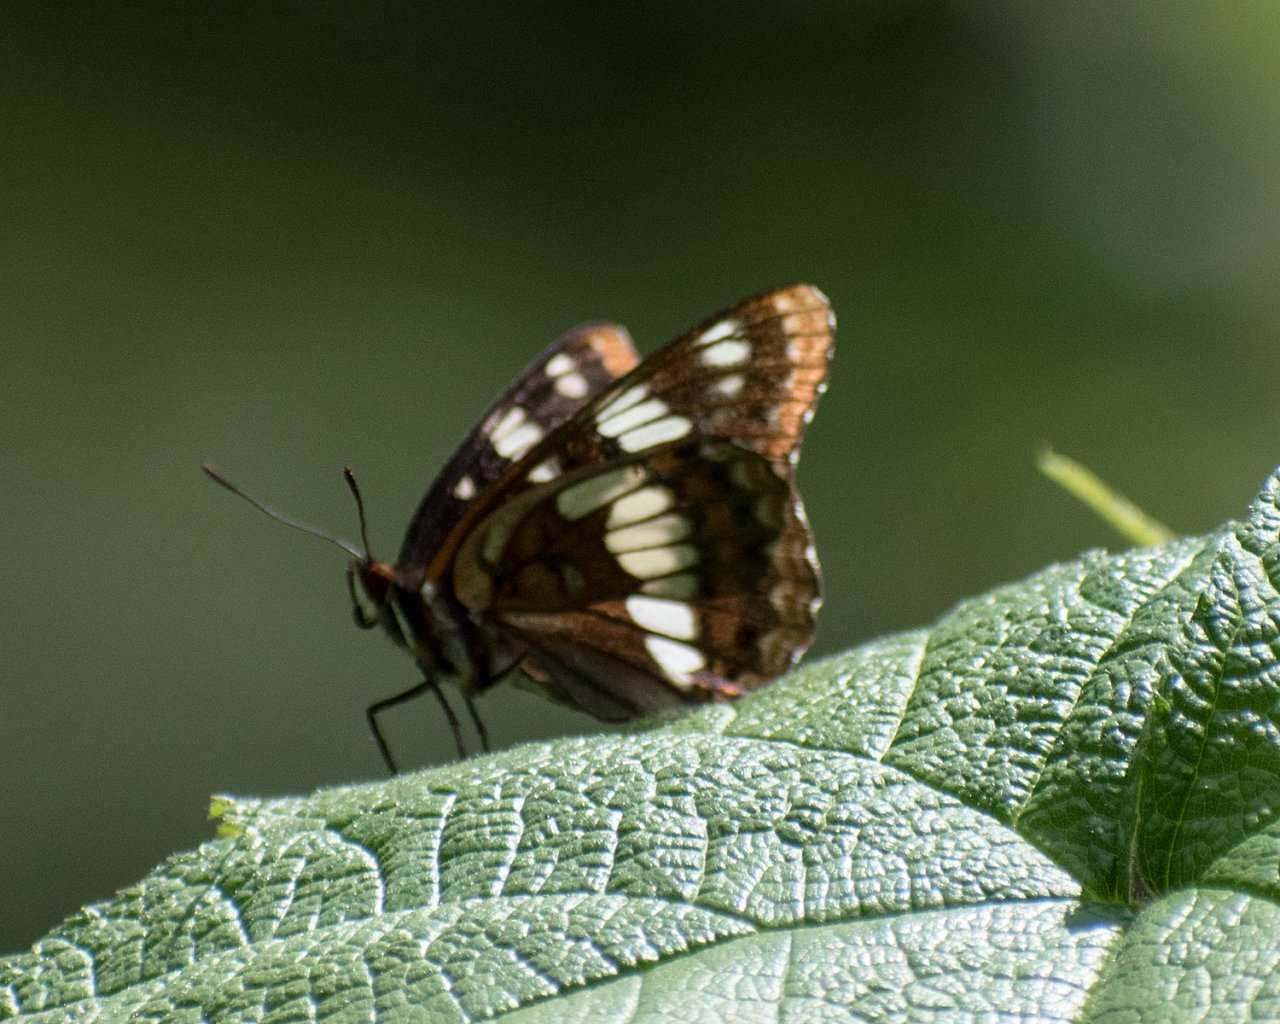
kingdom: Animalia
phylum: Arthropoda
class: Insecta
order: Lepidoptera
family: Nymphalidae
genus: Limenitis
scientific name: Limenitis lorquini
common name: Lorquin's Admiral
